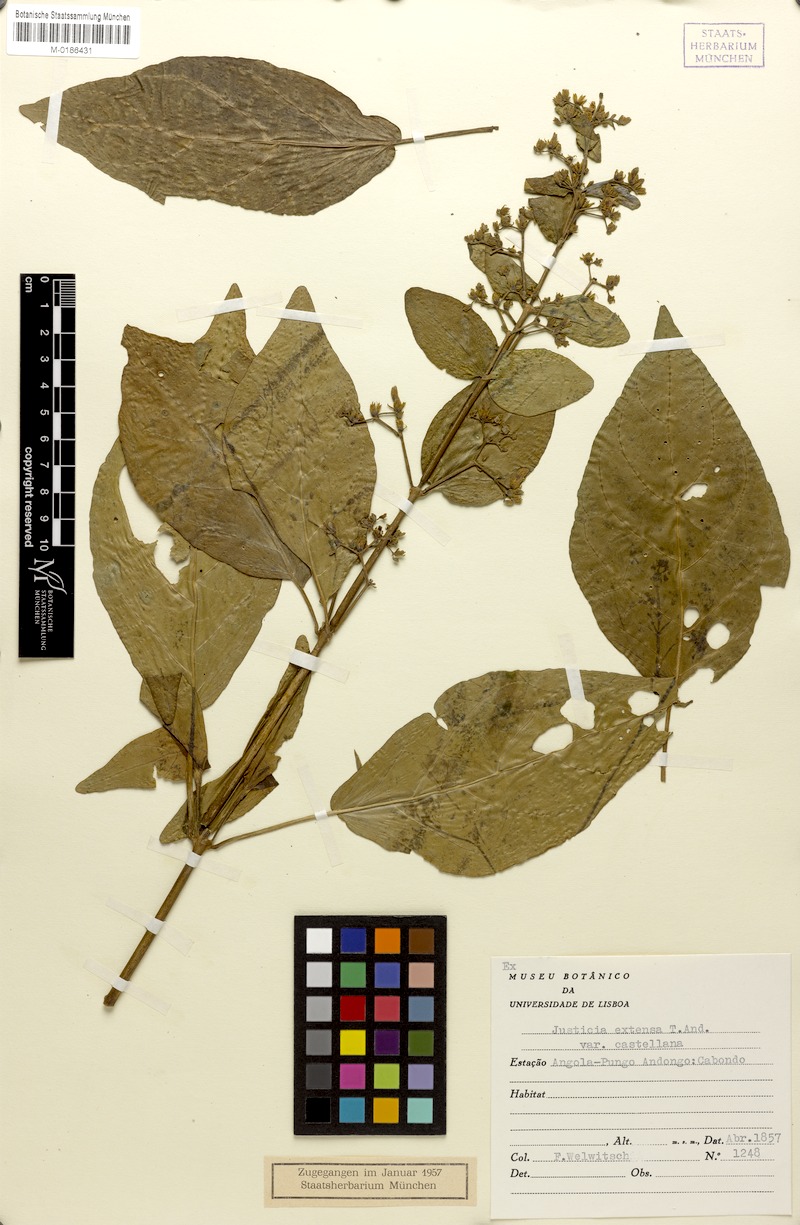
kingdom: Plantae
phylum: Tracheophyta
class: Magnoliopsida
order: Lamiales
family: Acanthaceae
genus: Justicia
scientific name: Justicia extensa
